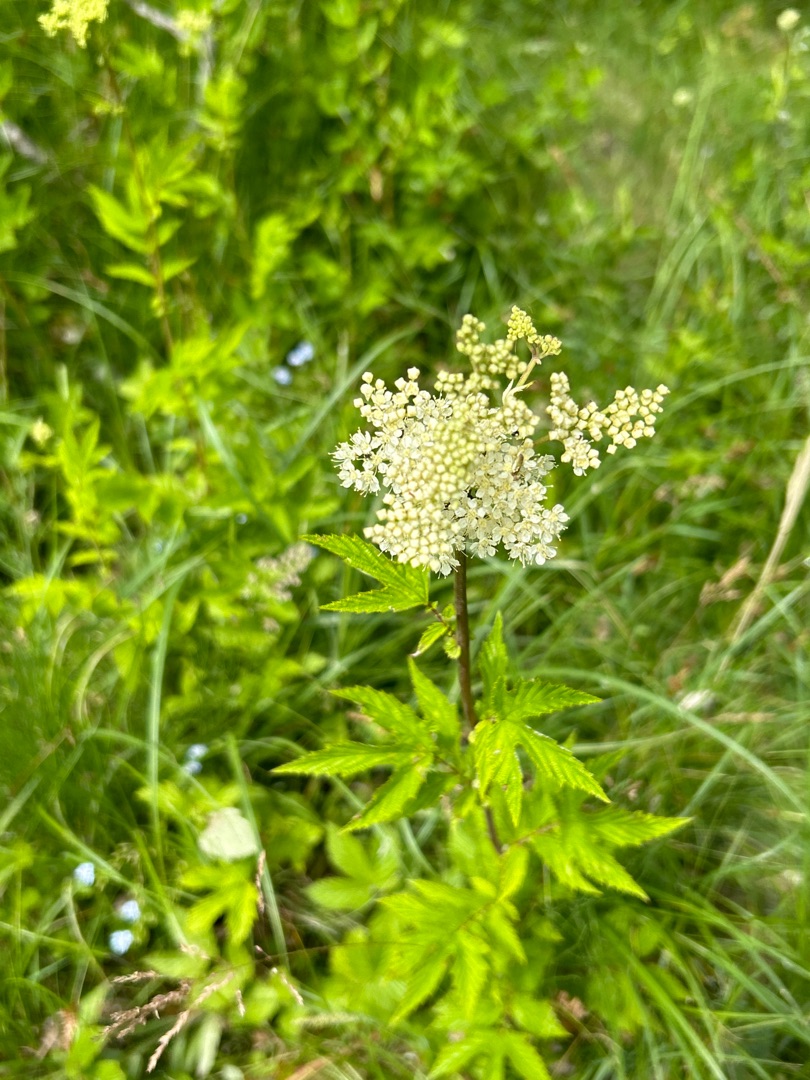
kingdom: Plantae
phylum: Tracheophyta
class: Magnoliopsida
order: Rosales
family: Rosaceae
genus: Filipendula
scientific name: Filipendula ulmaria
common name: Almindelig mjødurt
